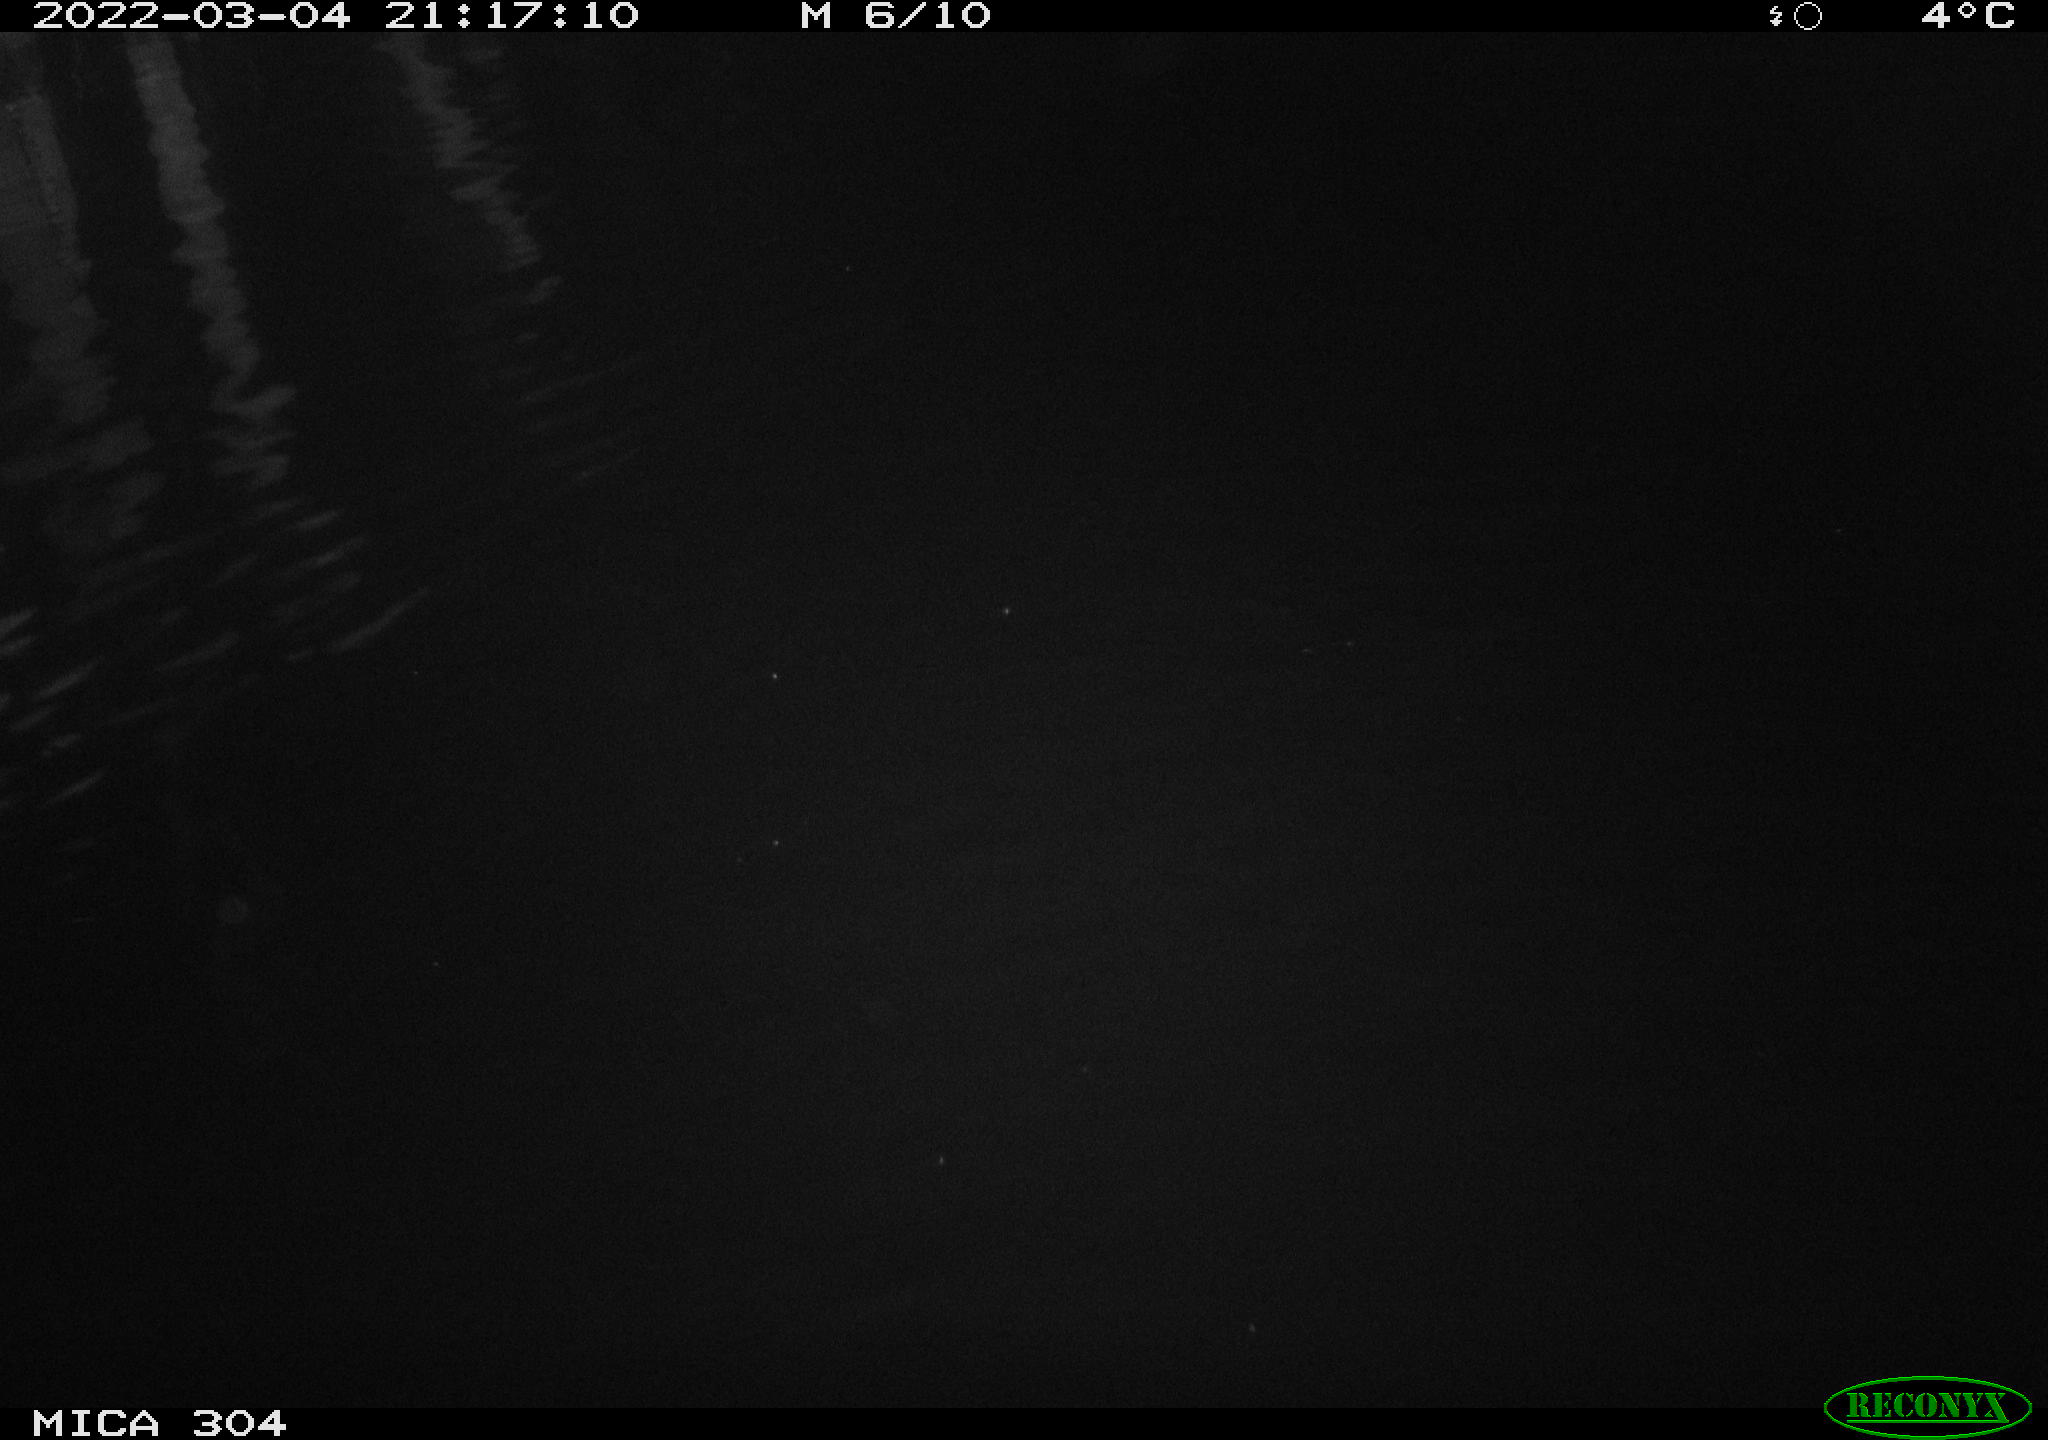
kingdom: Animalia
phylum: Chordata
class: Mammalia
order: Rodentia
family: Cricetidae
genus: Ondatra
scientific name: Ondatra zibethicus
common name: Muskrat
